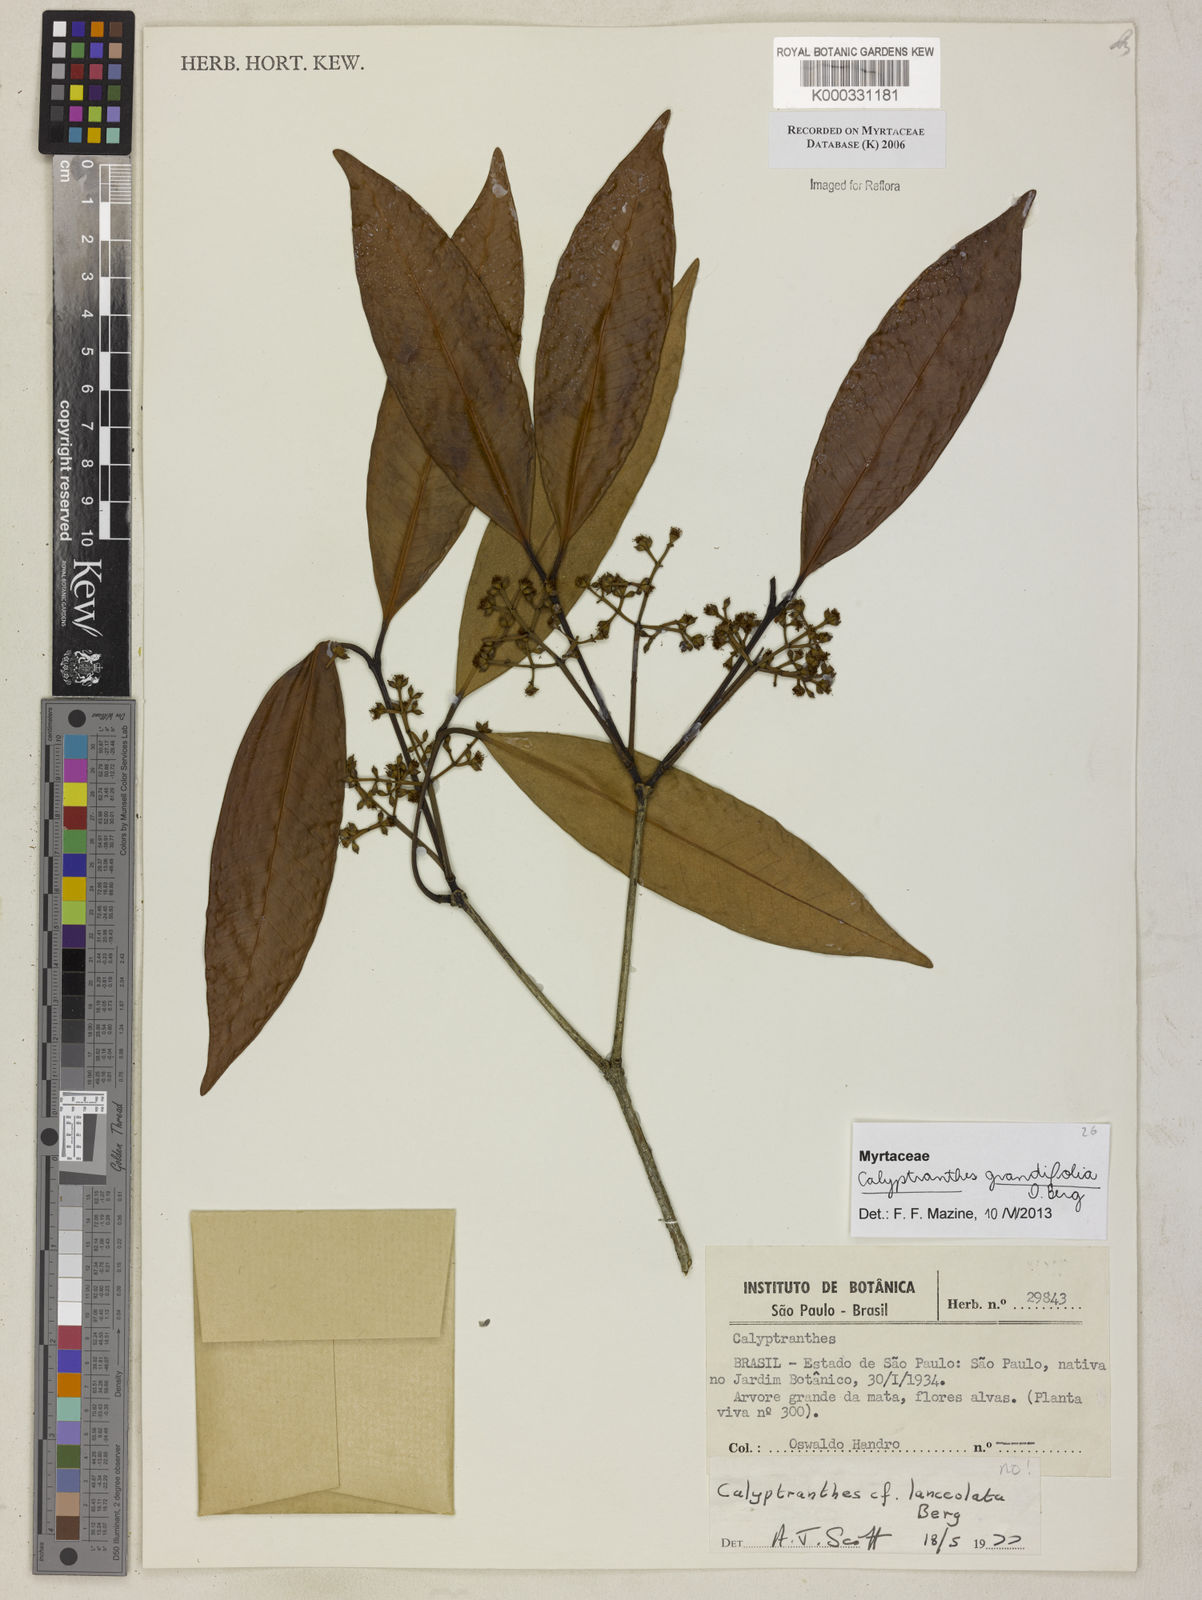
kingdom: Plantae
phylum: Tracheophyta
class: Magnoliopsida
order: Myrtales
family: Myrtaceae
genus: Myrcia
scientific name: Myrcia lonchophylla
